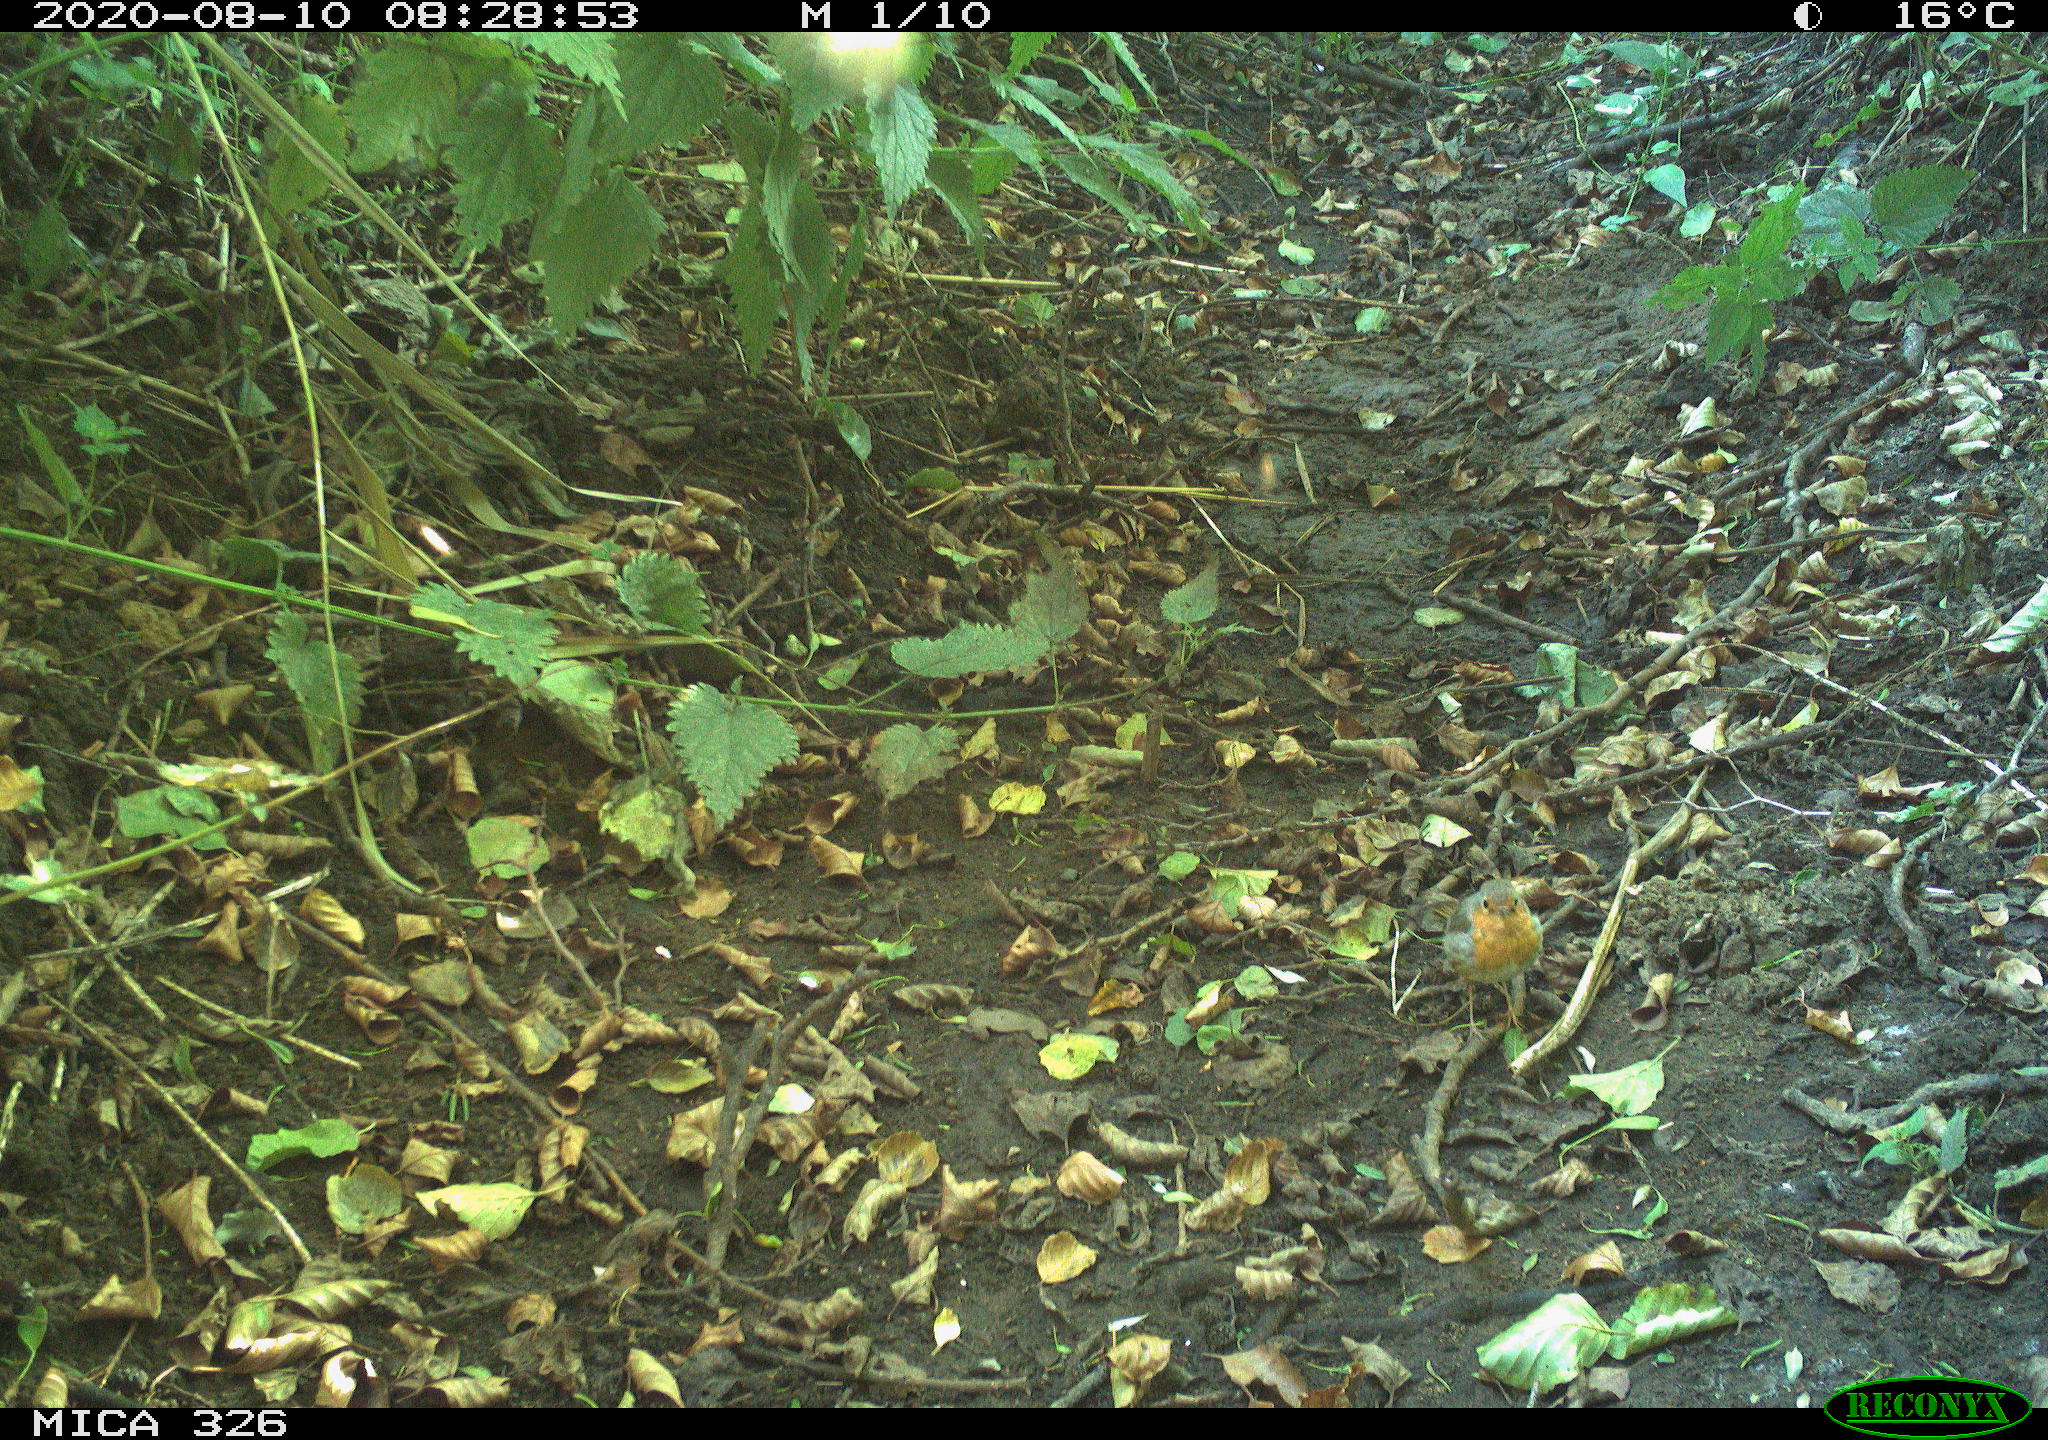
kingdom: Animalia
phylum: Chordata
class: Aves
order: Passeriformes
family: Muscicapidae
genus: Erithacus
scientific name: Erithacus rubecula
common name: European robin
